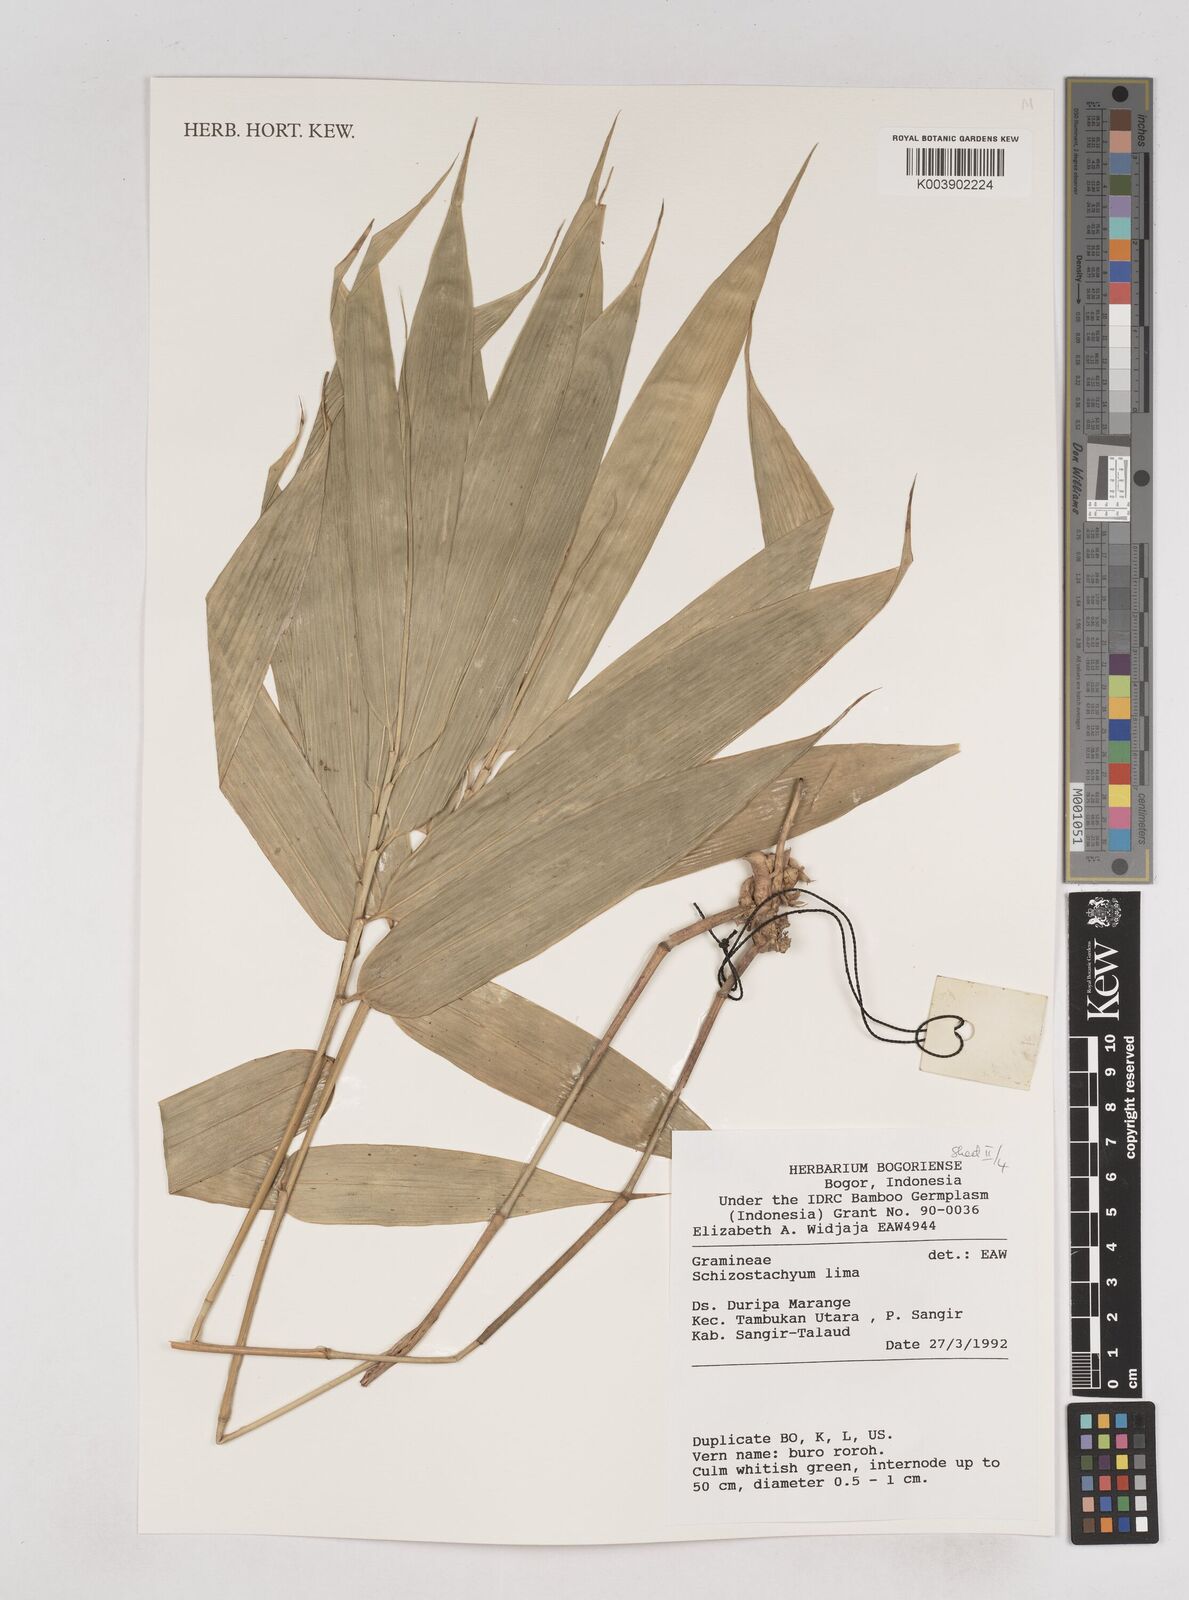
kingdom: Plantae
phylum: Tracheophyta
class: Liliopsida
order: Poales
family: Poaceae
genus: Schizostachyum
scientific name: Schizostachyum lima
